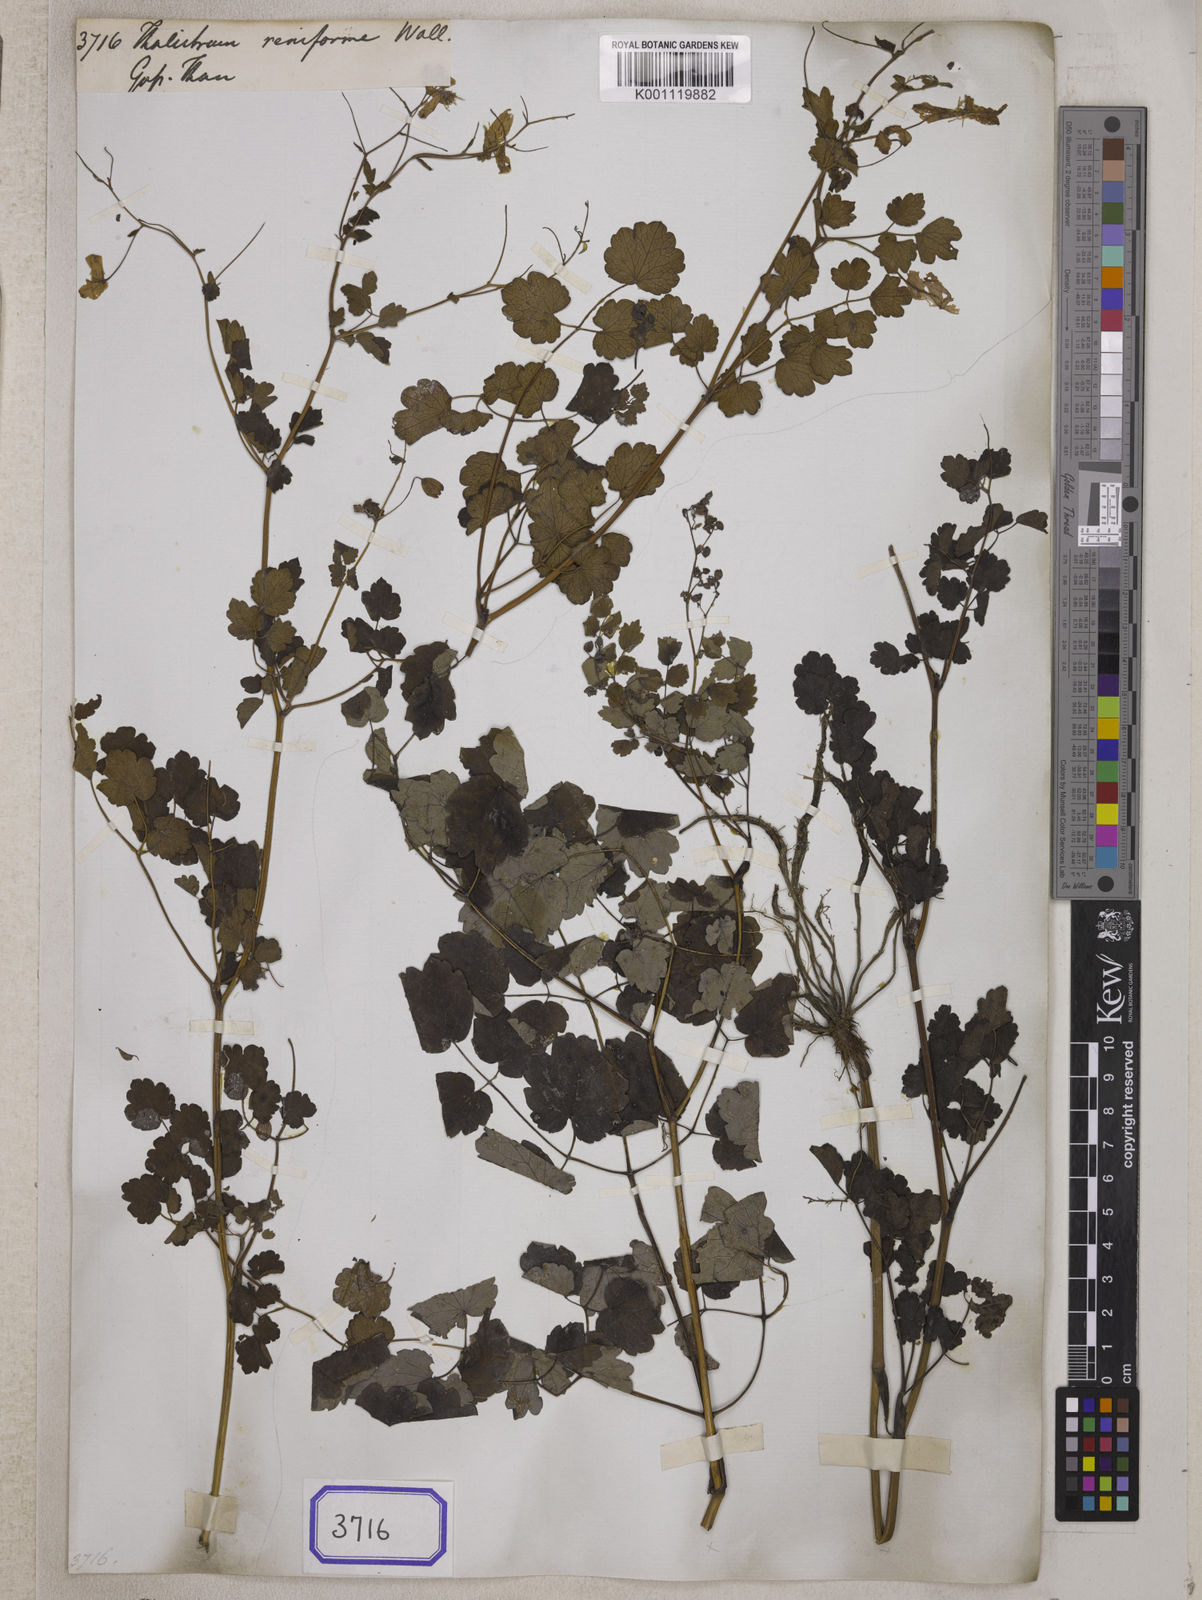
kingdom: Plantae
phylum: Tracheophyta
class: Magnoliopsida
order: Ranunculales
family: Ranunculaceae
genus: Thalictrum
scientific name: Thalictrum reniforme
